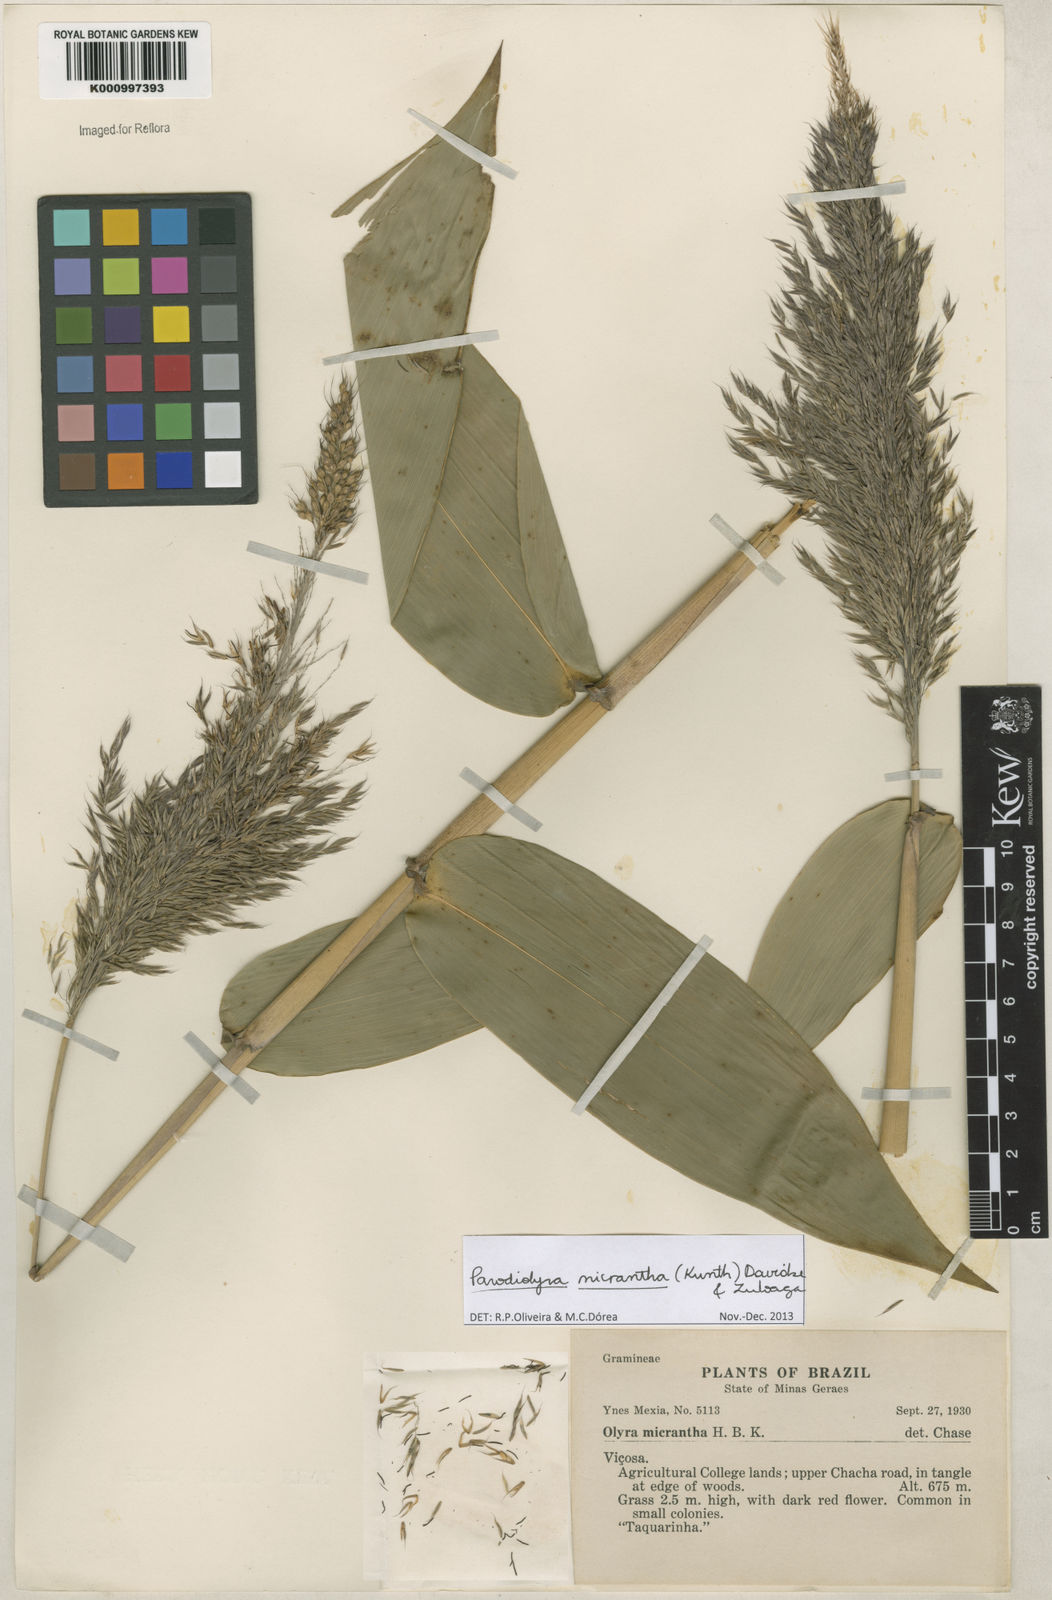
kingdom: Plantae
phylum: Tracheophyta
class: Liliopsida
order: Poales
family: Poaceae
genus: Taquara
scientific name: Taquara micrantha
